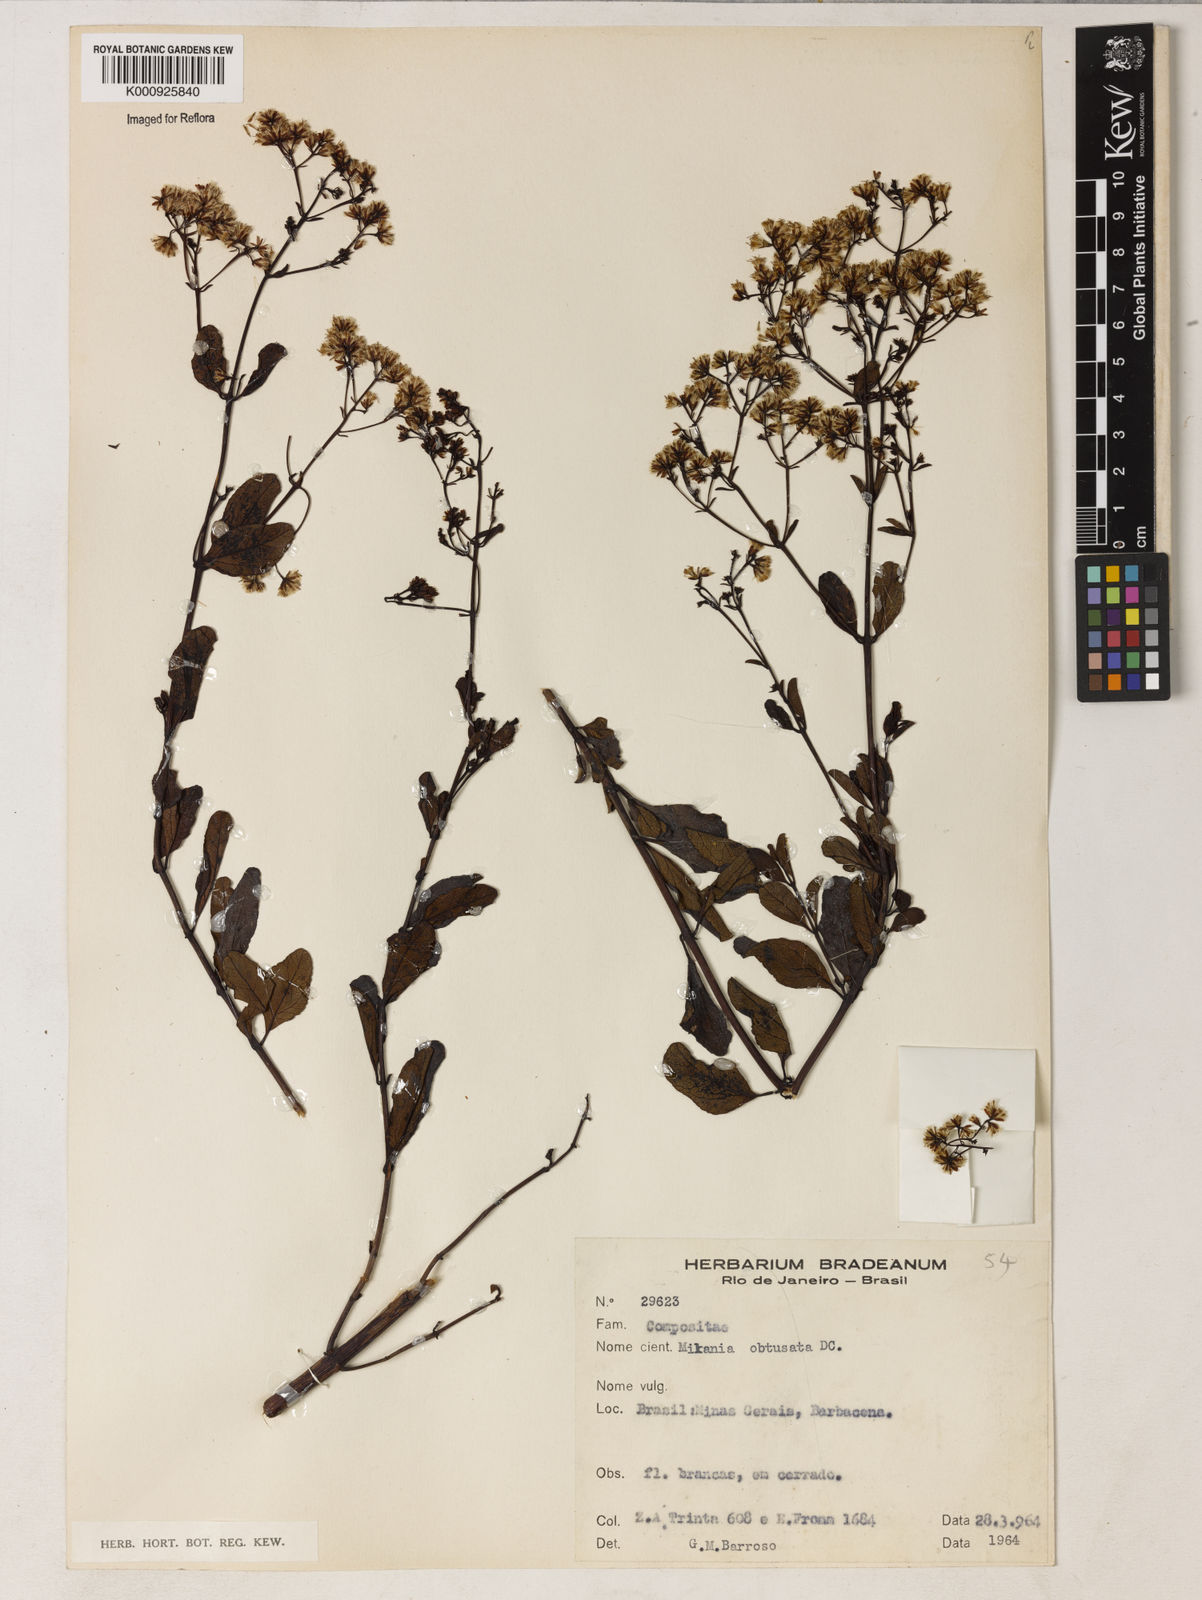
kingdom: Plantae
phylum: Tracheophyta
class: Magnoliopsida
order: Asterales
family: Asteraceae
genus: Mikania
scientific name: Mikania obtusata
